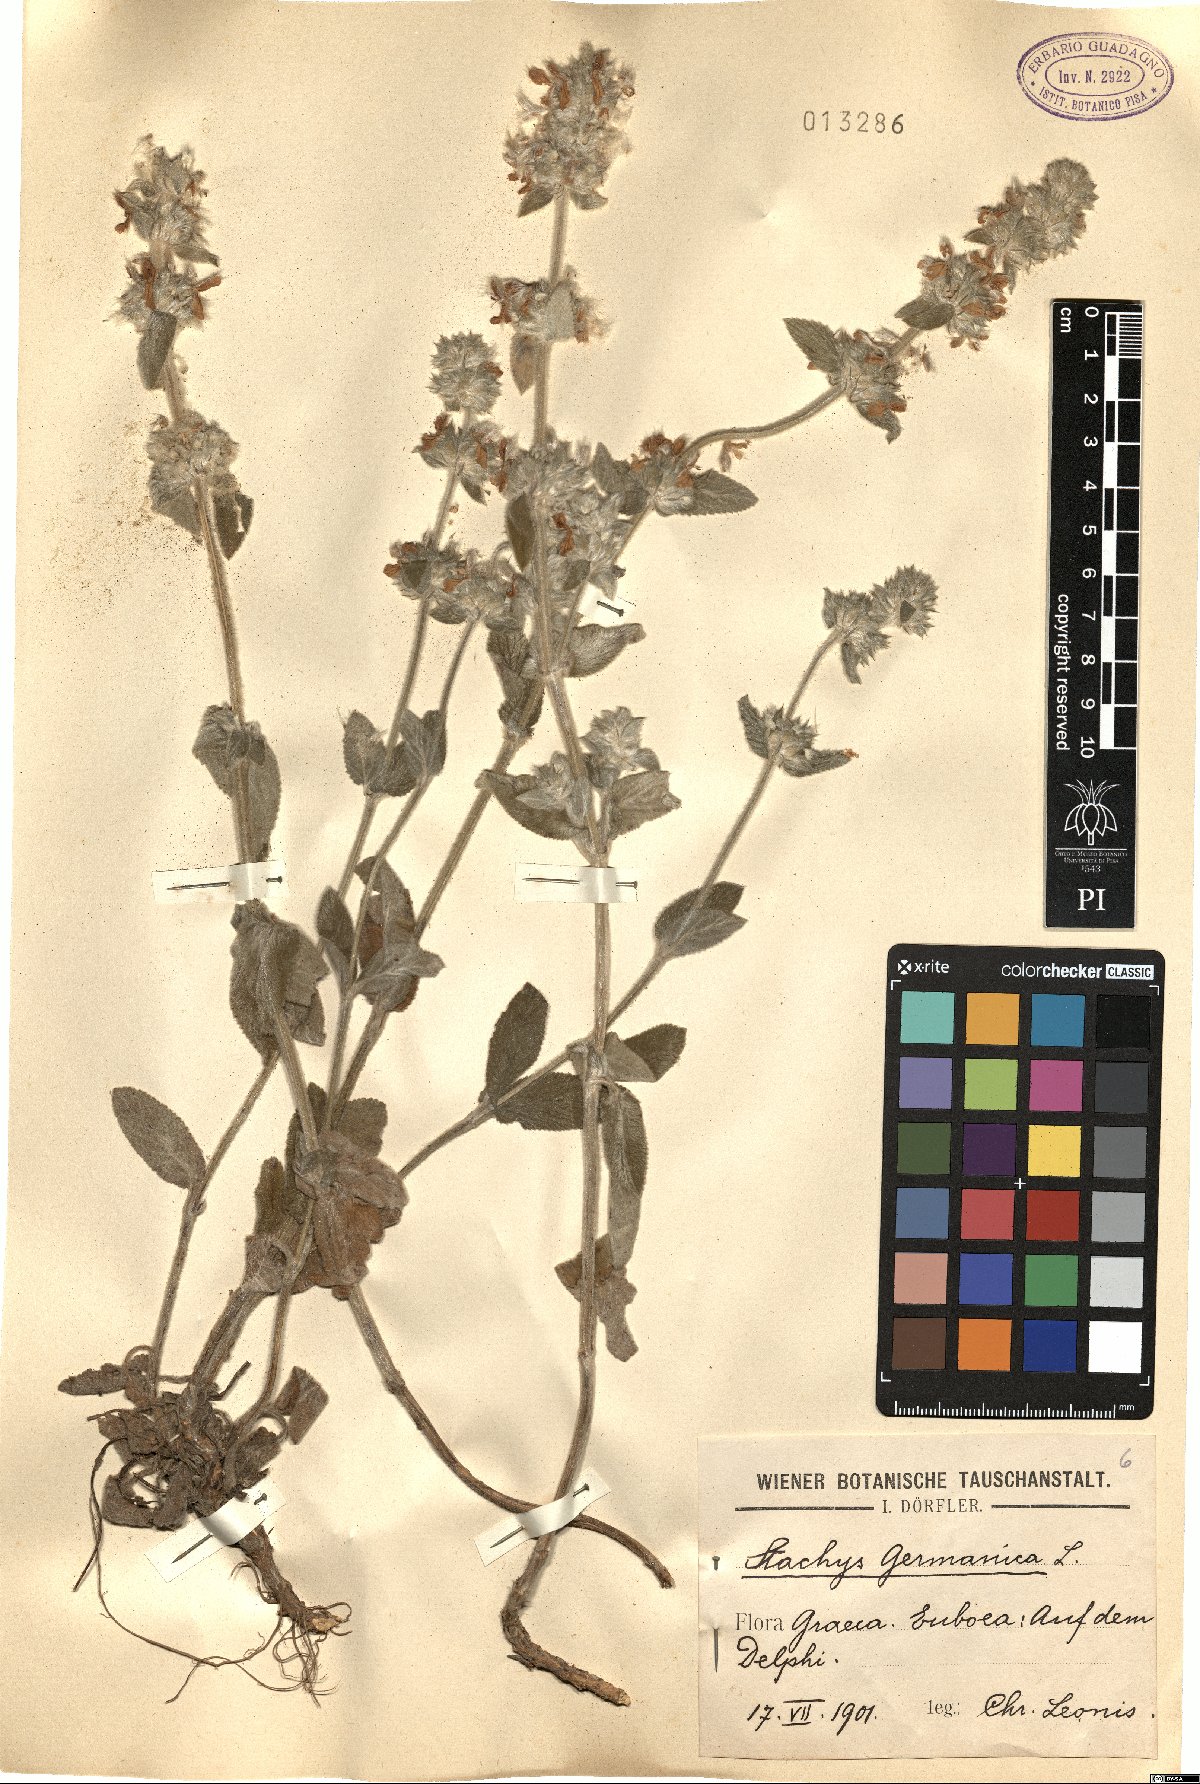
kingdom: Plantae
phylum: Tracheophyta
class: Magnoliopsida
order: Lamiales
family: Lamiaceae
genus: Stachys
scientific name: Stachys germanica
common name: Downy woundwort
